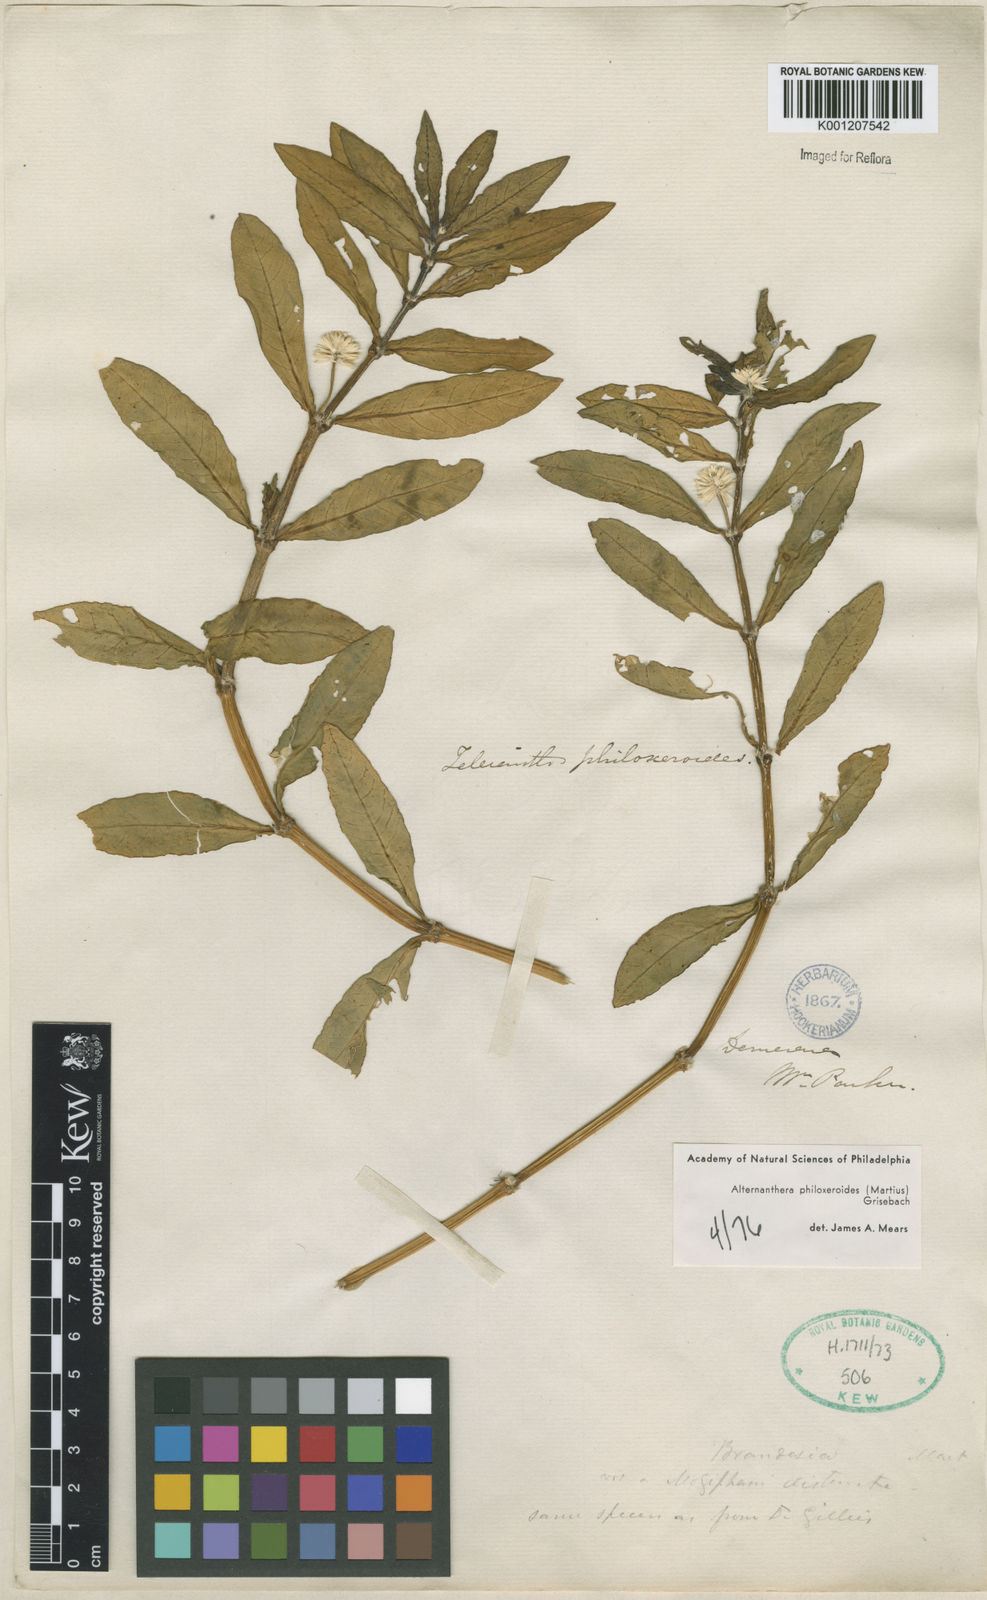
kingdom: Plantae
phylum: Tracheophyta
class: Magnoliopsida
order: Caryophyllales
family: Amaranthaceae
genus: Alternanthera
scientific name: Alternanthera philoxeroides
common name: Alligatorweed
